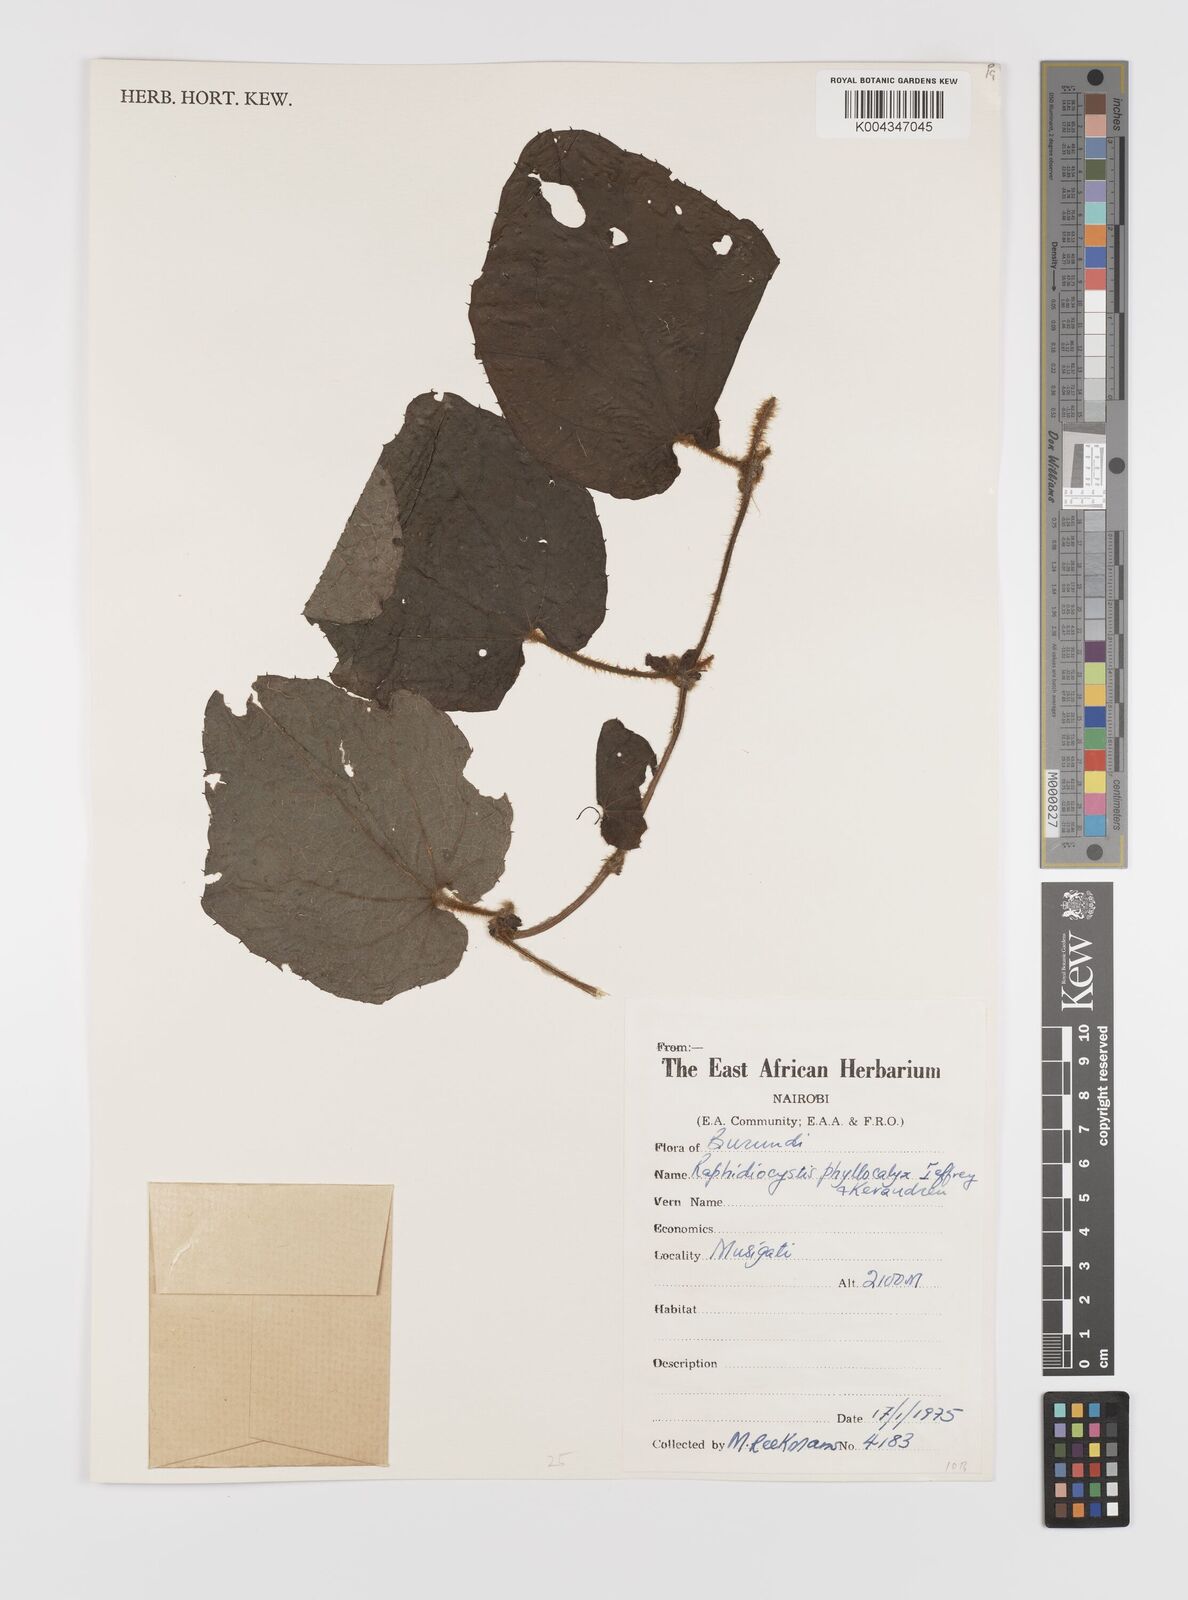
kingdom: Plantae
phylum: Tracheophyta
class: Magnoliopsida
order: Cucurbitales
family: Cucurbitaceae
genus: Raphidiocystis
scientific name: Raphidiocystis phyllocalyx
